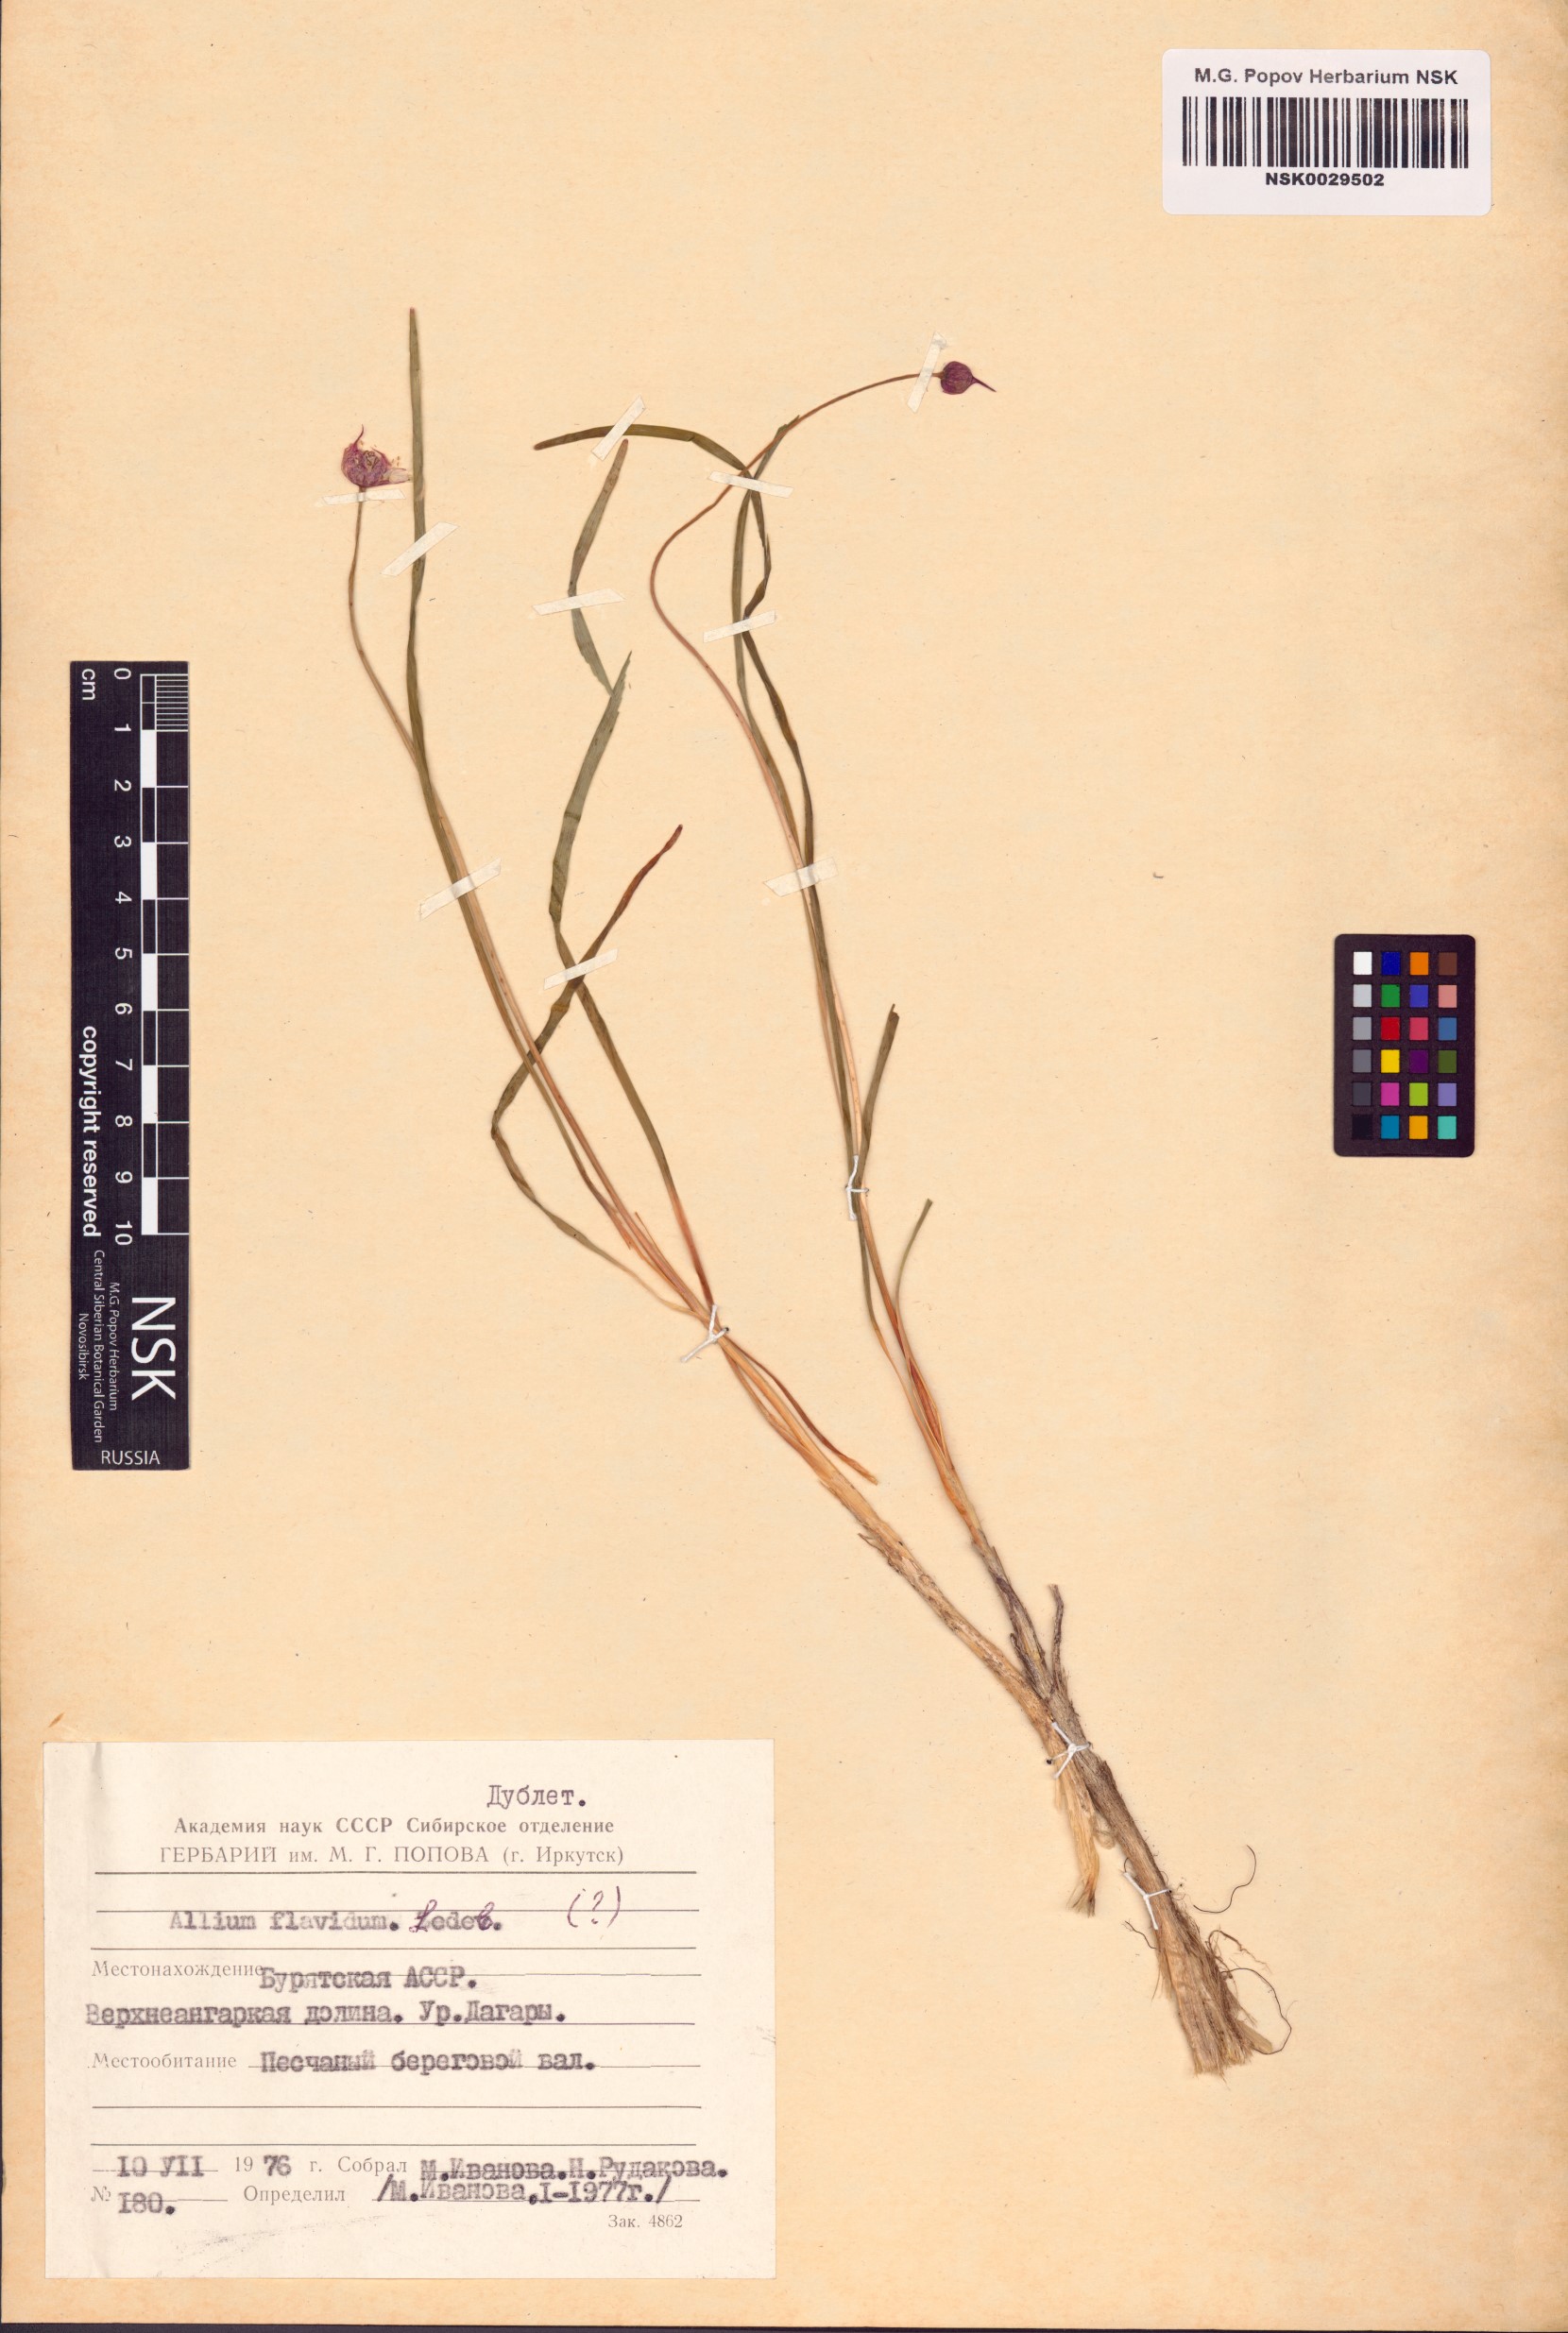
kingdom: Plantae
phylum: Tracheophyta
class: Liliopsida
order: Asparagales
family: Amaryllidaceae
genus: Allium
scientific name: Allium flavidum
